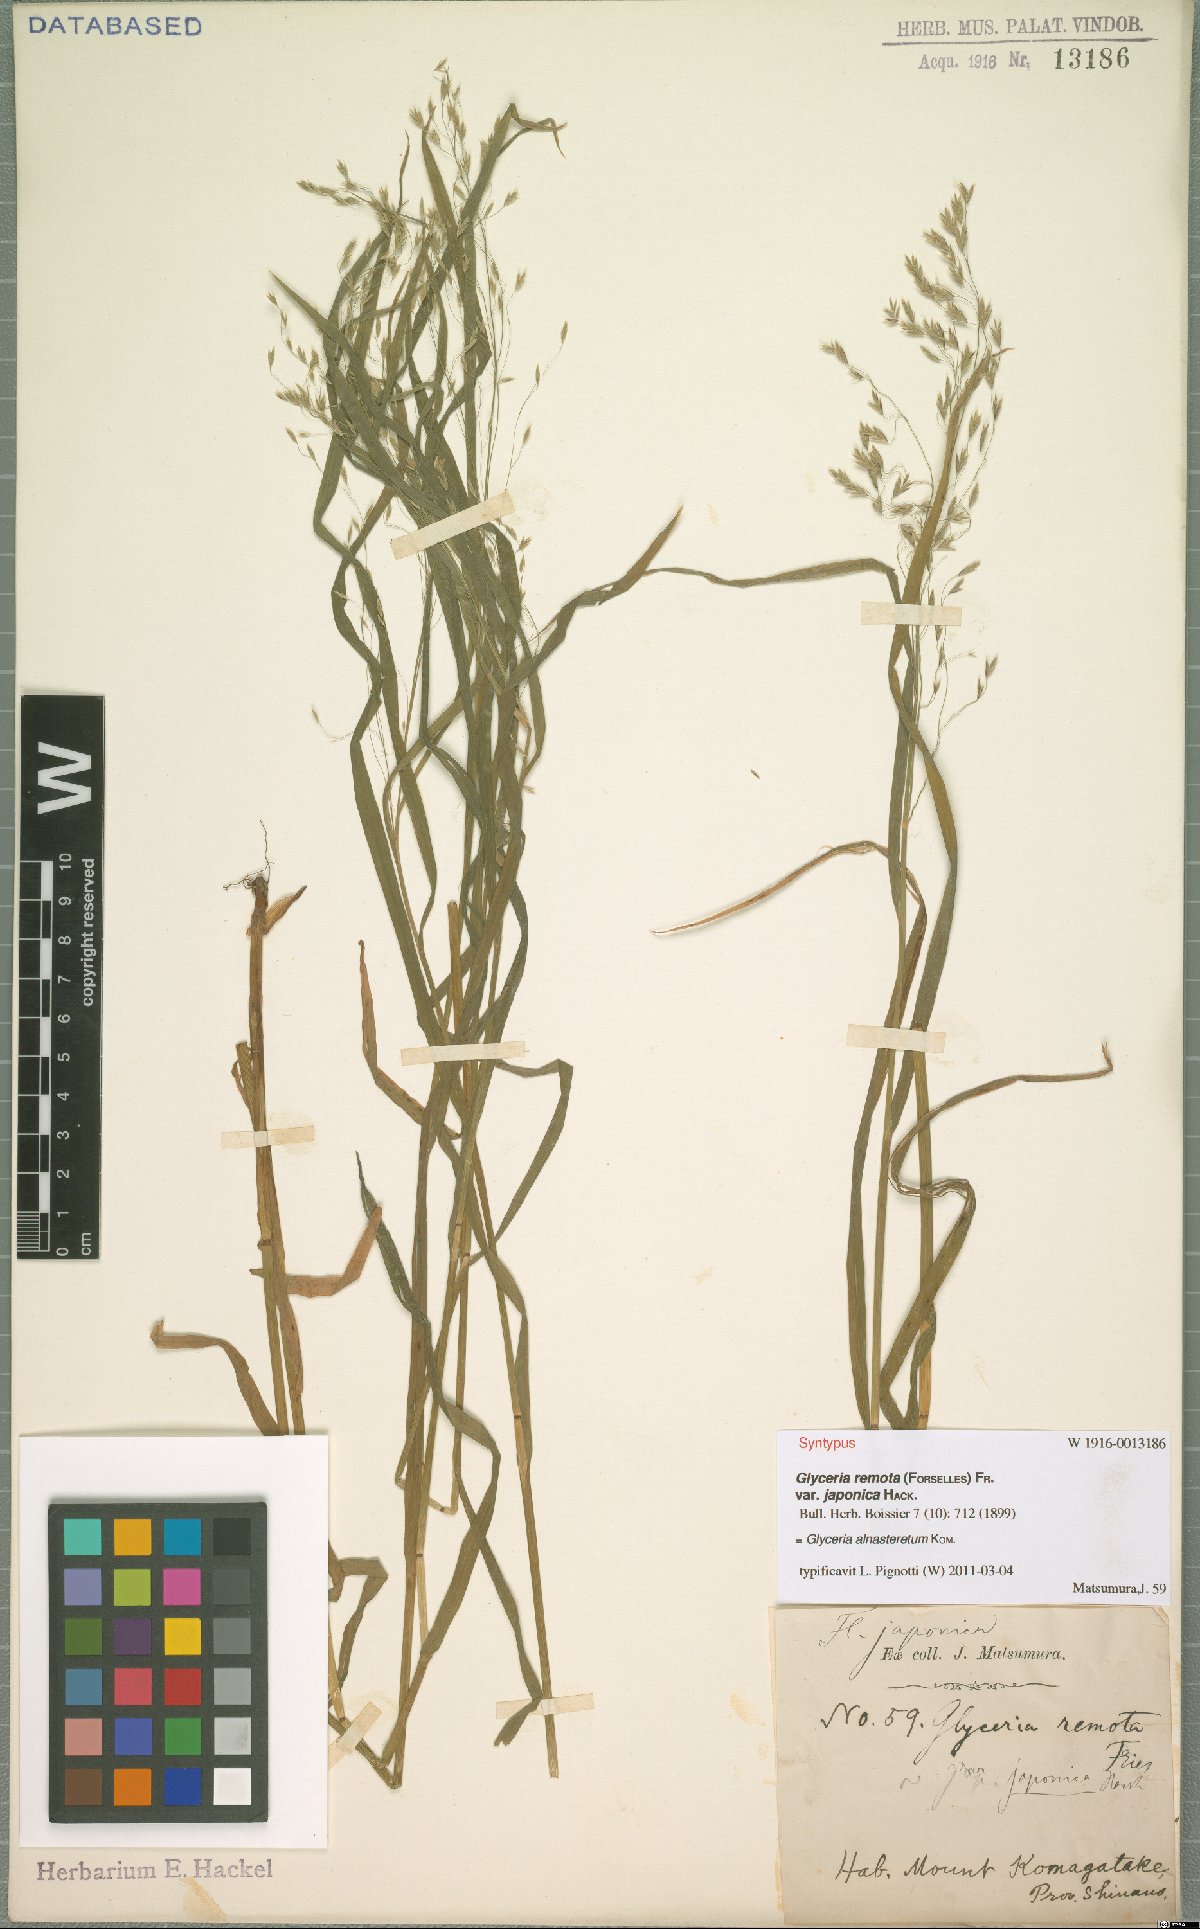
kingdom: Plantae
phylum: Tracheophyta
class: Liliopsida
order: Poales
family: Poaceae
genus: Glyceria
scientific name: Glyceria alnasteretum
